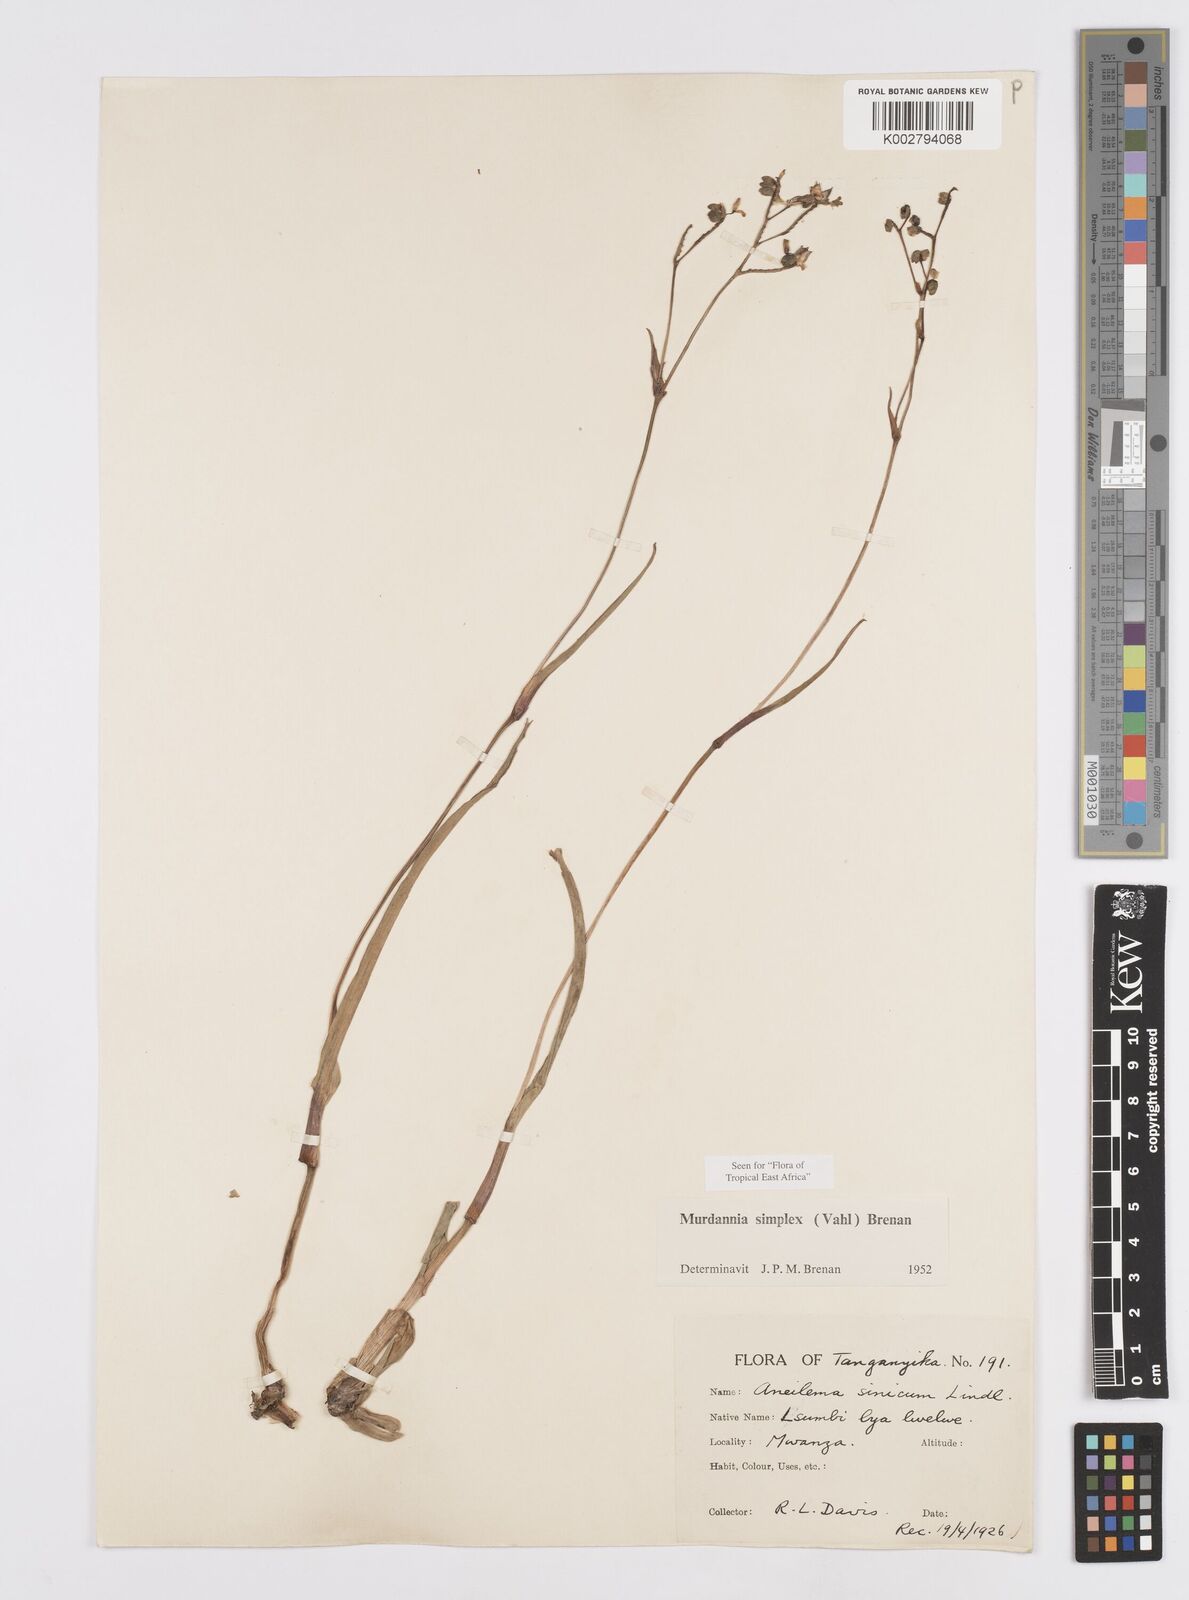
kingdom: Plantae
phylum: Tracheophyta
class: Liliopsida
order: Commelinales
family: Commelinaceae
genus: Murdannia
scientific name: Murdannia simplex
